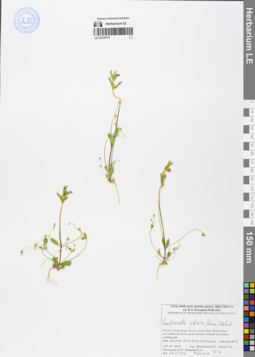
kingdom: Plantae
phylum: Tracheophyta
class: Magnoliopsida
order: Gentianales
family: Gentianaceae
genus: Gentianella
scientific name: Gentianella sibirica
